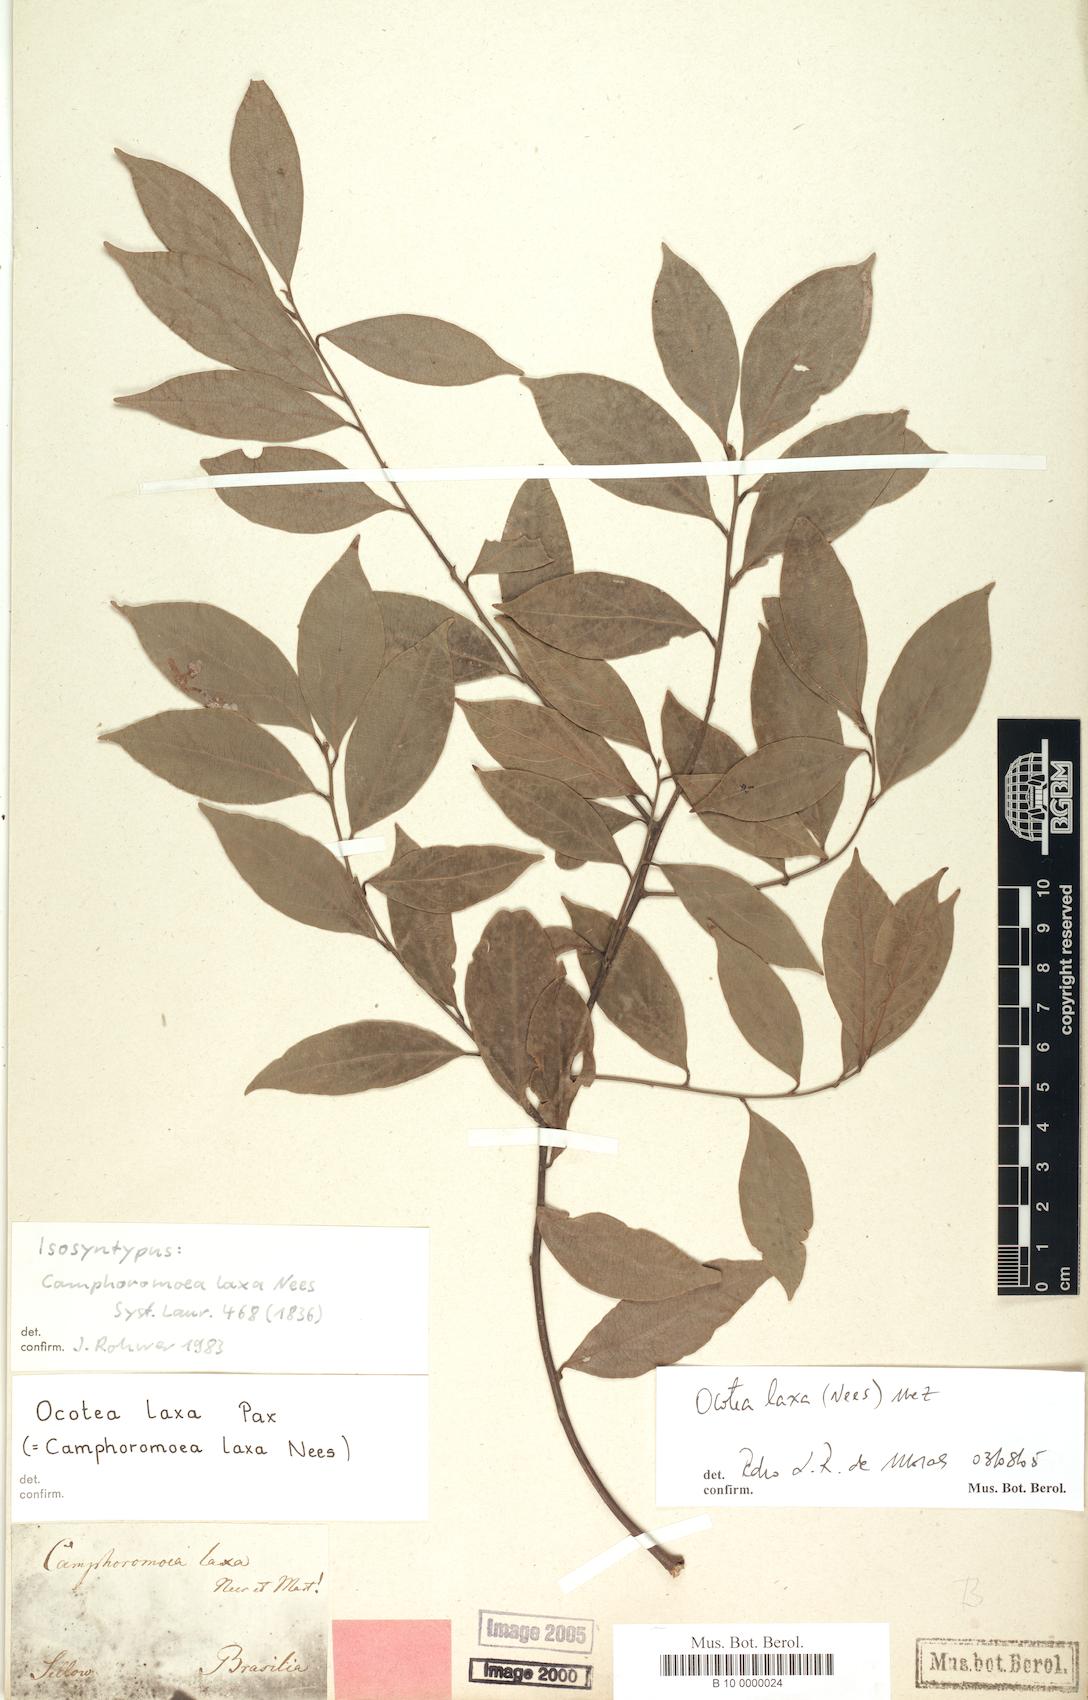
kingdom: Plantae
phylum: Tracheophyta
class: Magnoliopsida
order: Laurales
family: Lauraceae
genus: Ocotea
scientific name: Ocotea laxa
